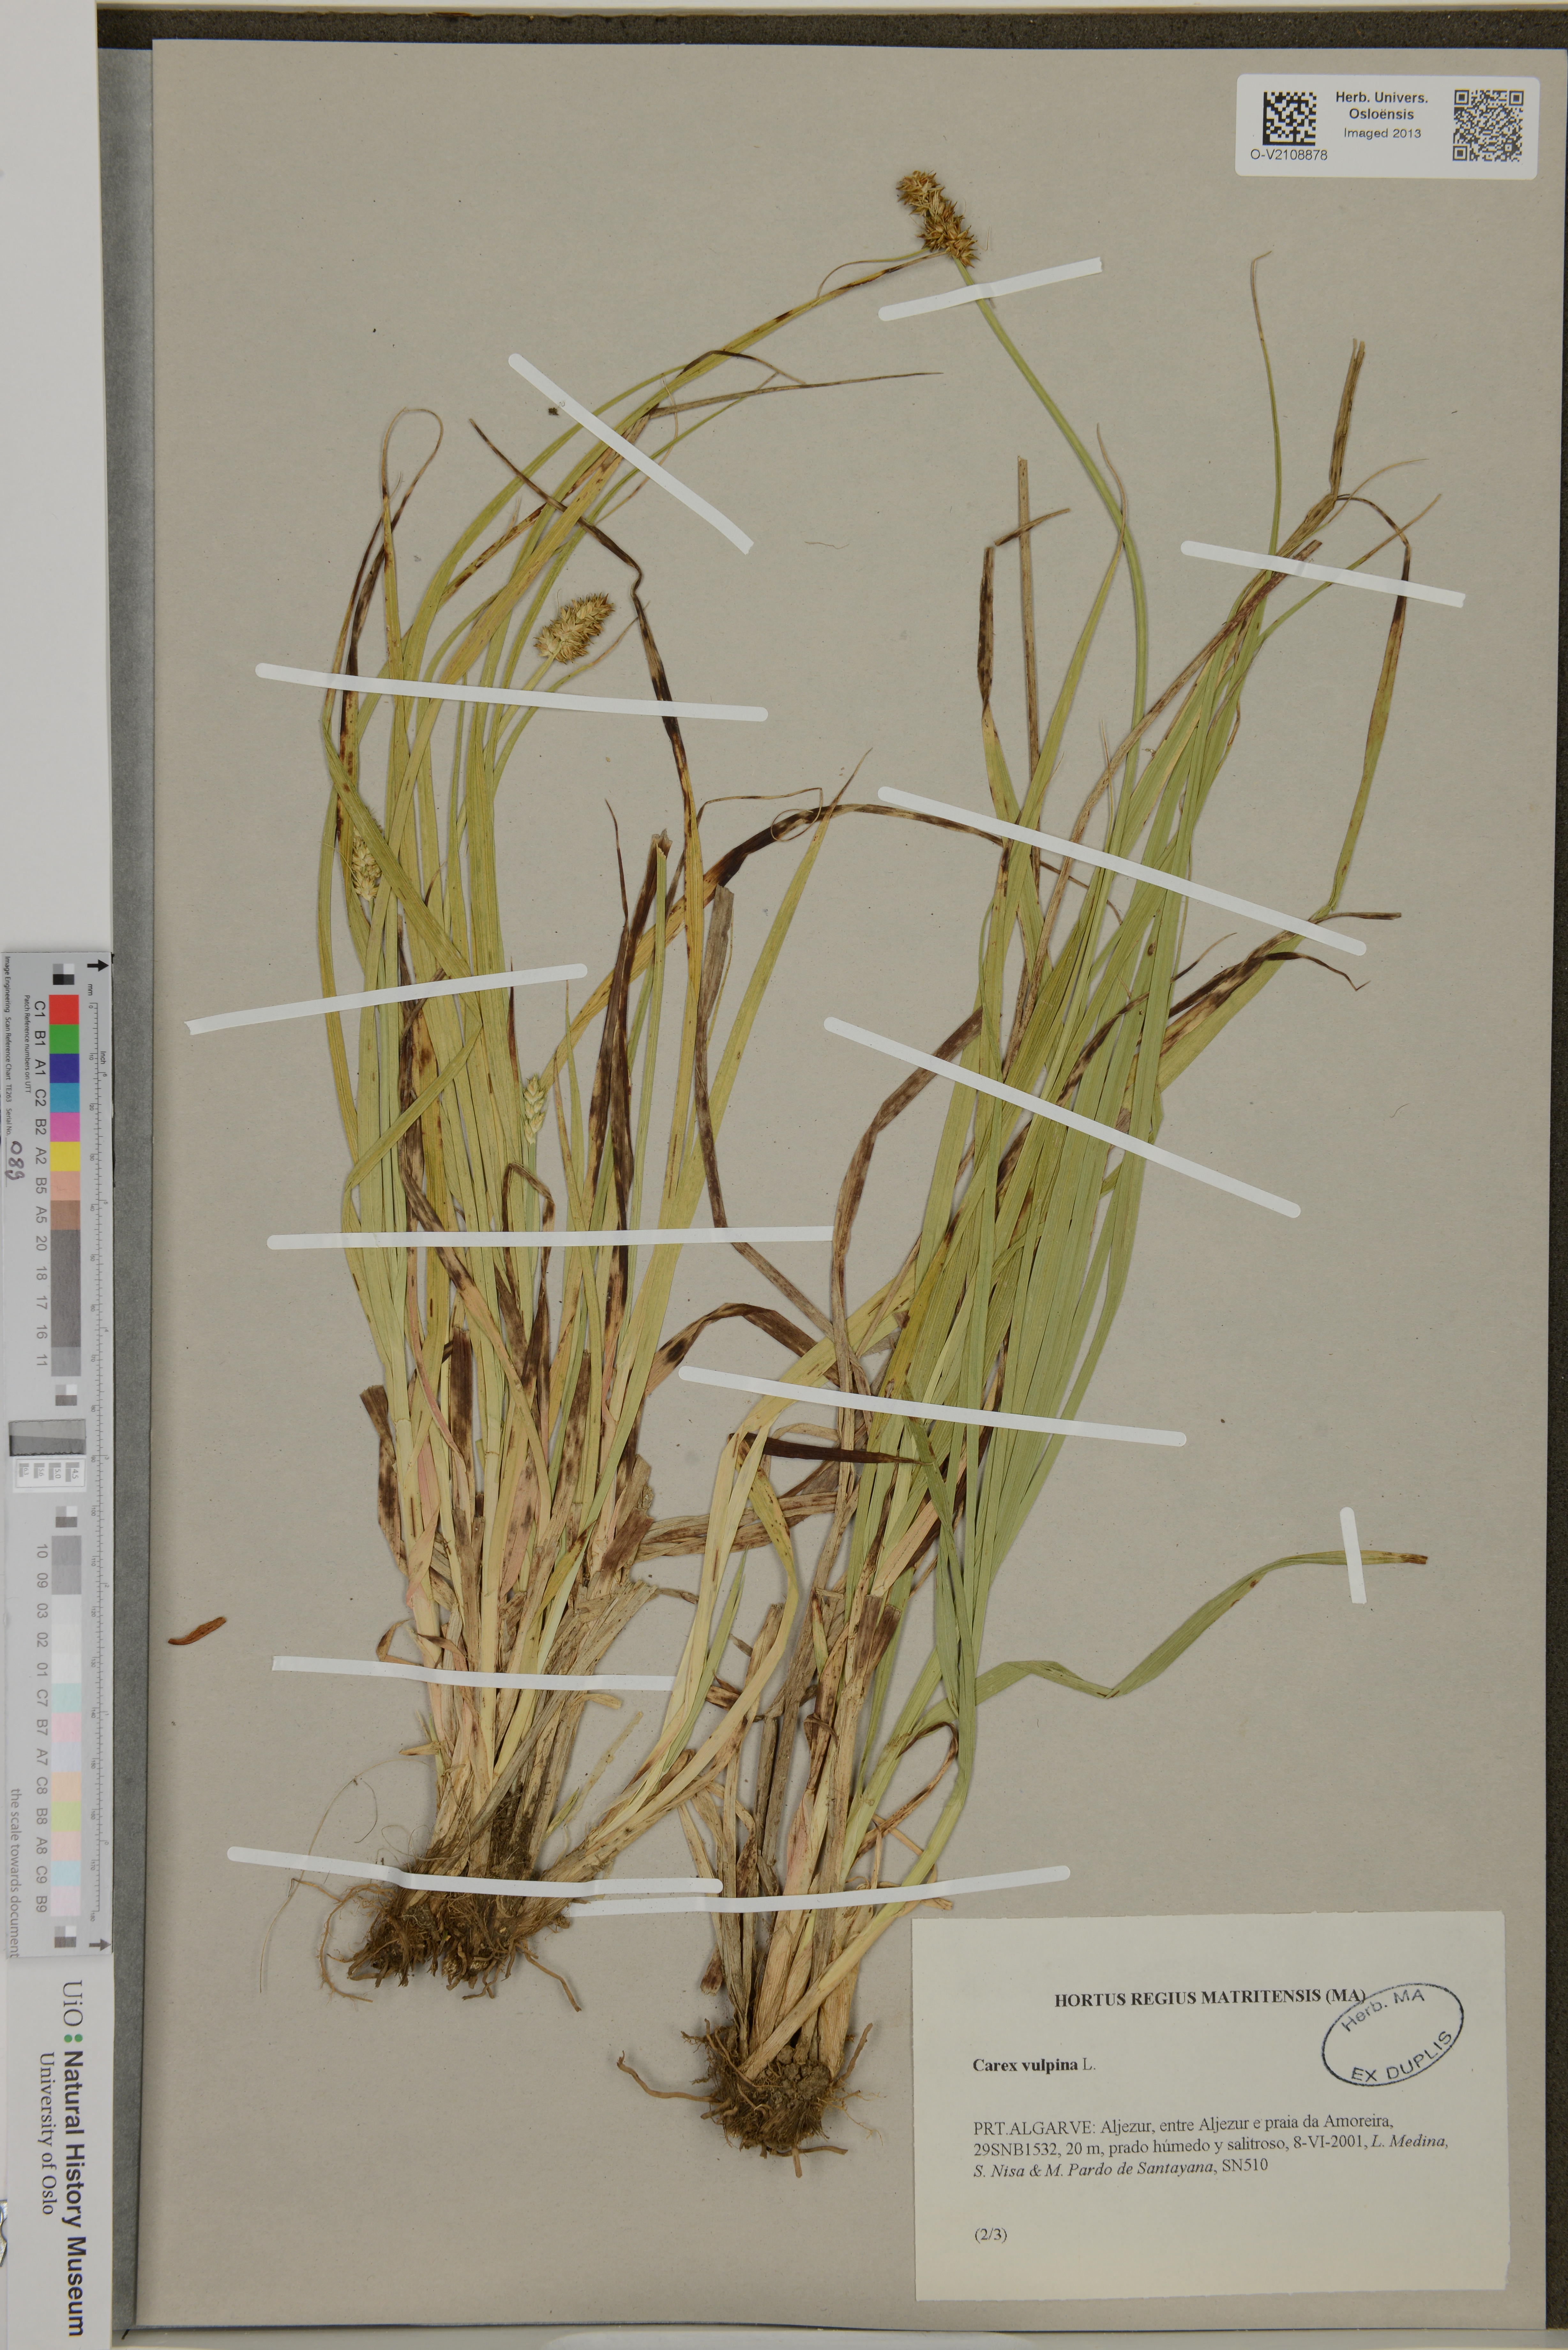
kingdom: Plantae
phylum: Tracheophyta
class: Liliopsida
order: Poales
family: Cyperaceae
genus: Carex
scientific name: Carex vulpina
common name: True fox-sedge
